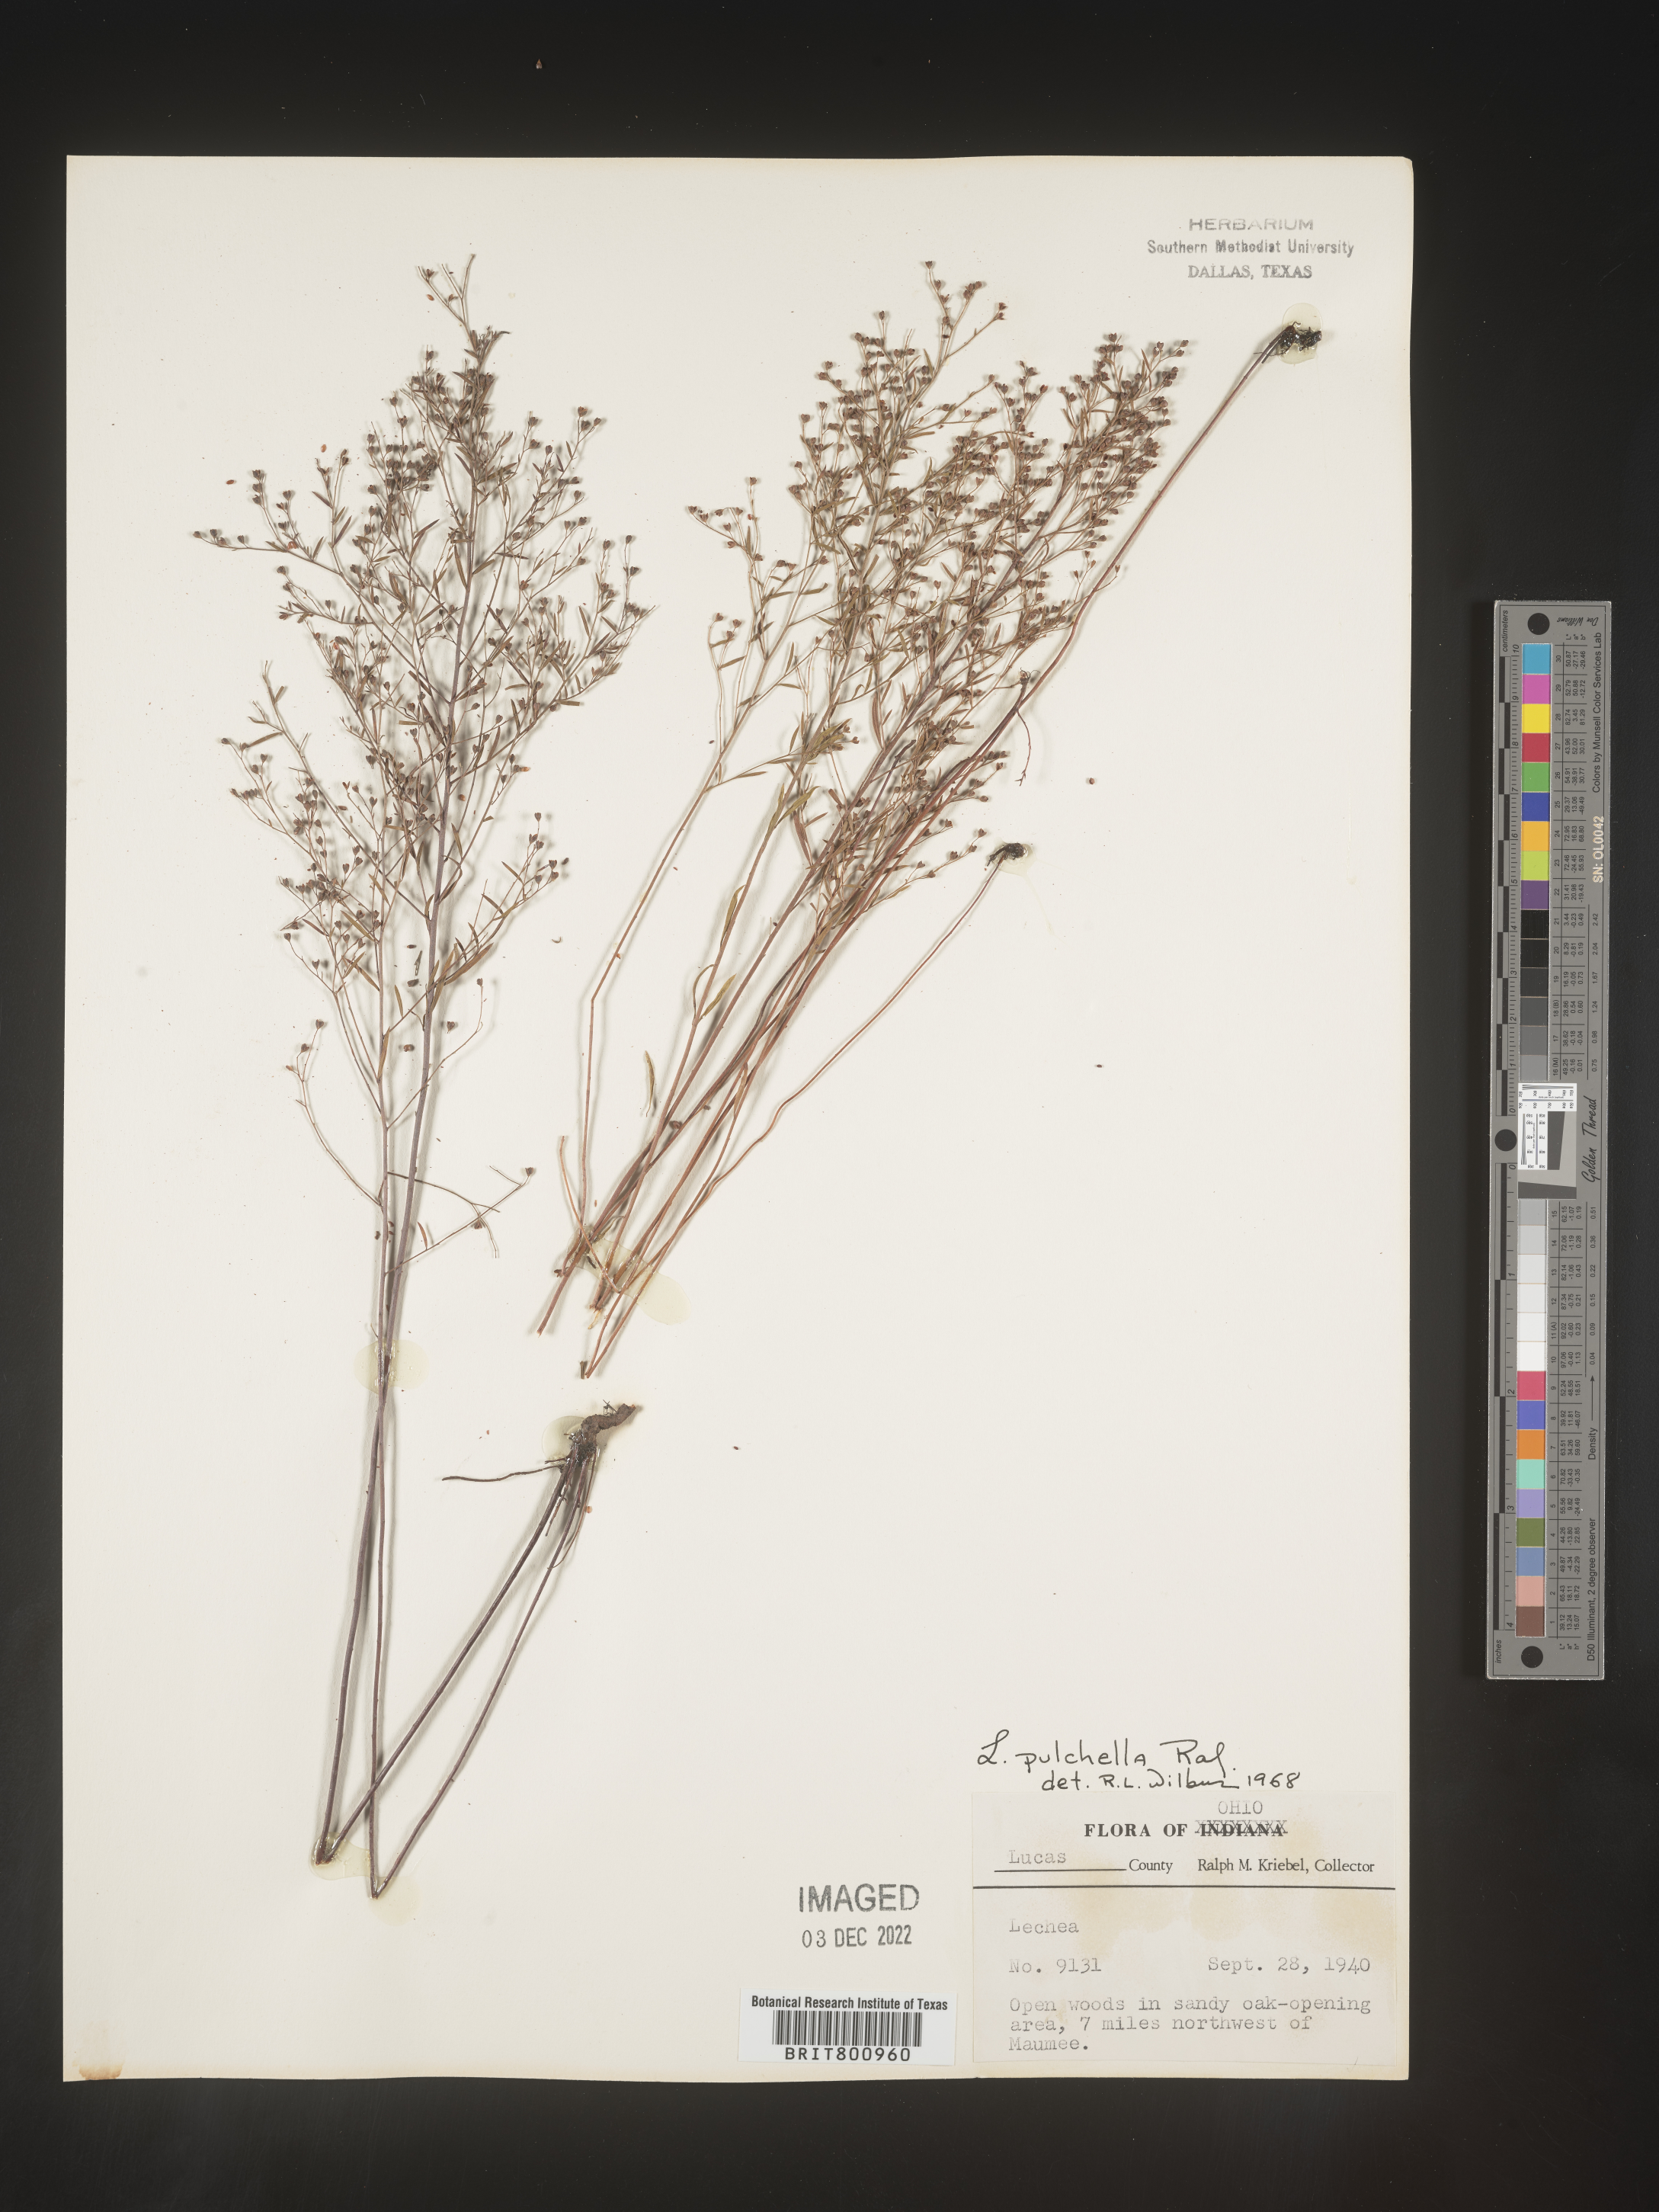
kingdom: Plantae
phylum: Tracheophyta
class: Magnoliopsida
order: Malvales
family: Cistaceae
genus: Lechea
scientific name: Lechea pulchella
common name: Leggett's pinweed
